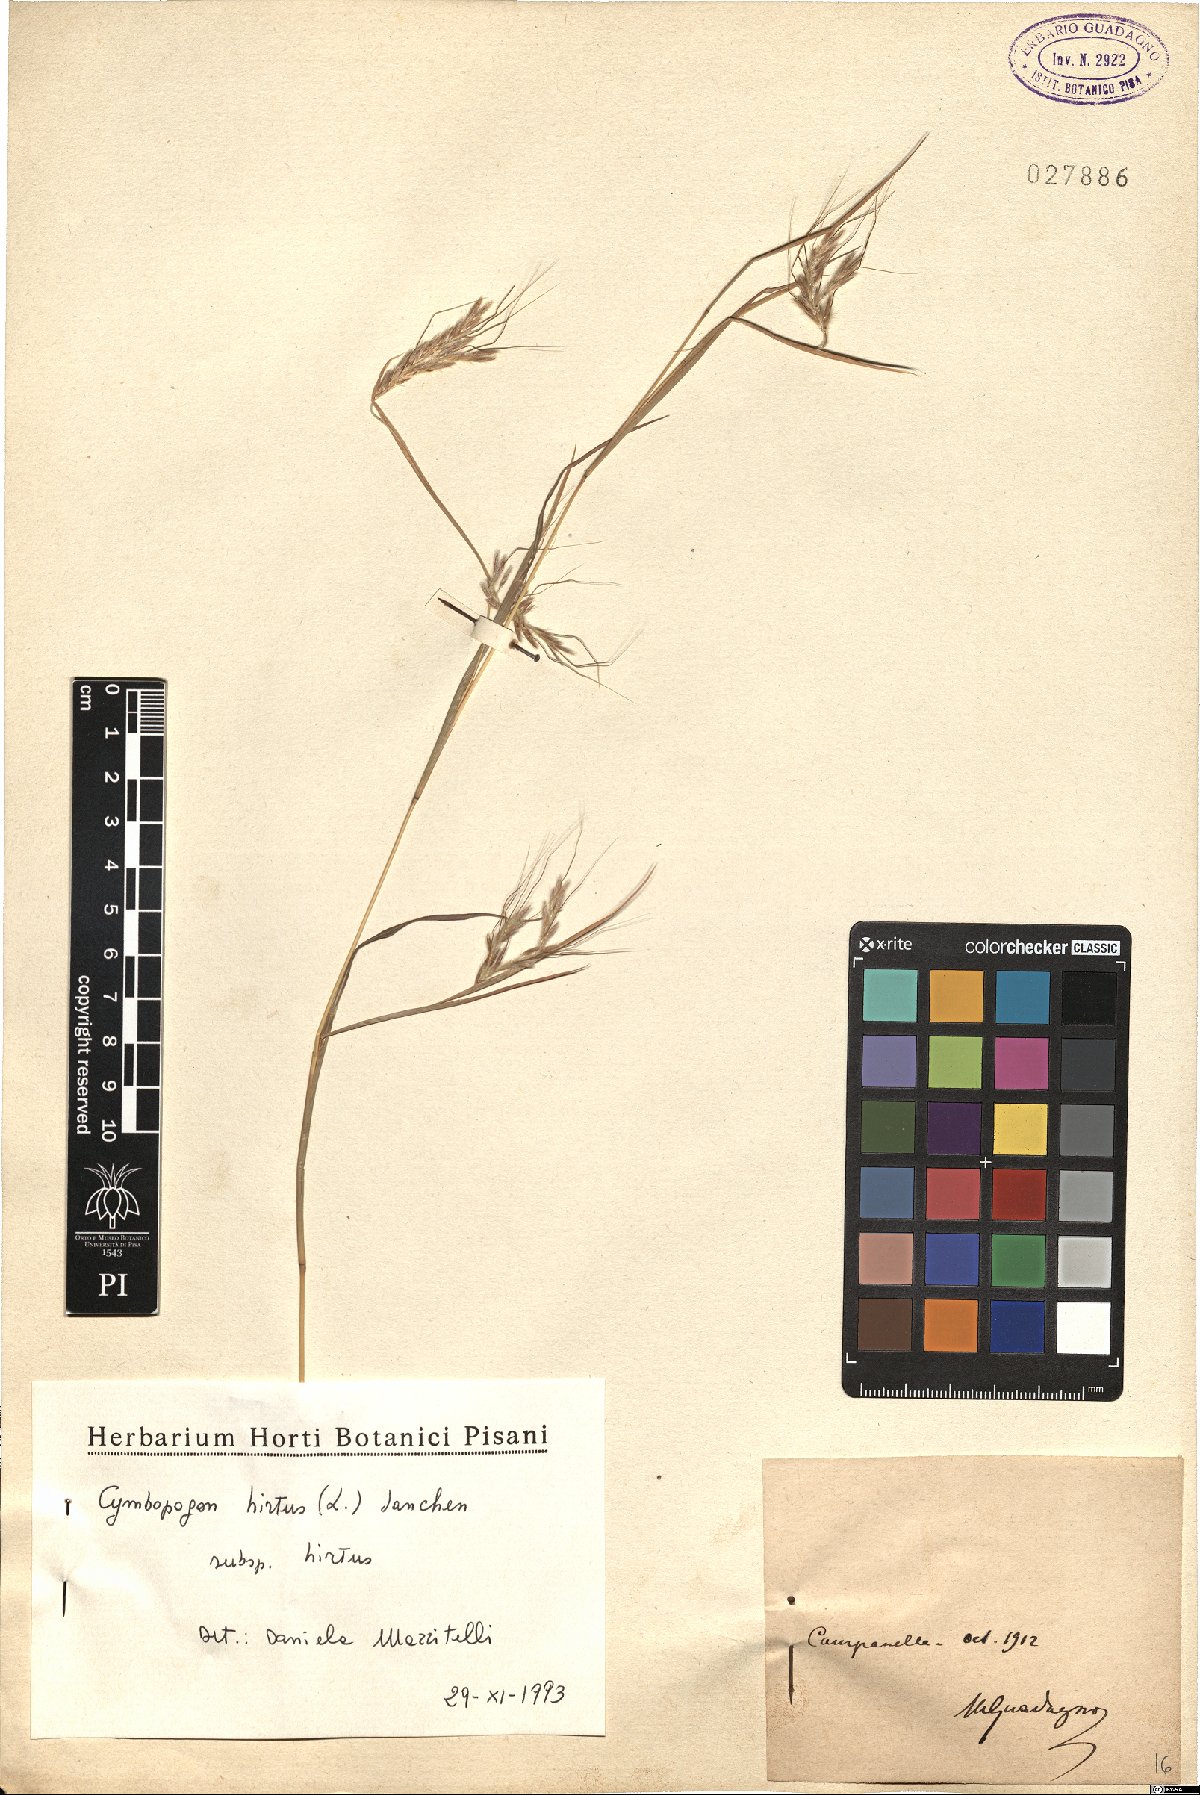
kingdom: Plantae
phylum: Tracheophyta
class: Liliopsida
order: Poales
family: Poaceae
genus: Cymbopogon
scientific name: Cymbopogon hirtus
